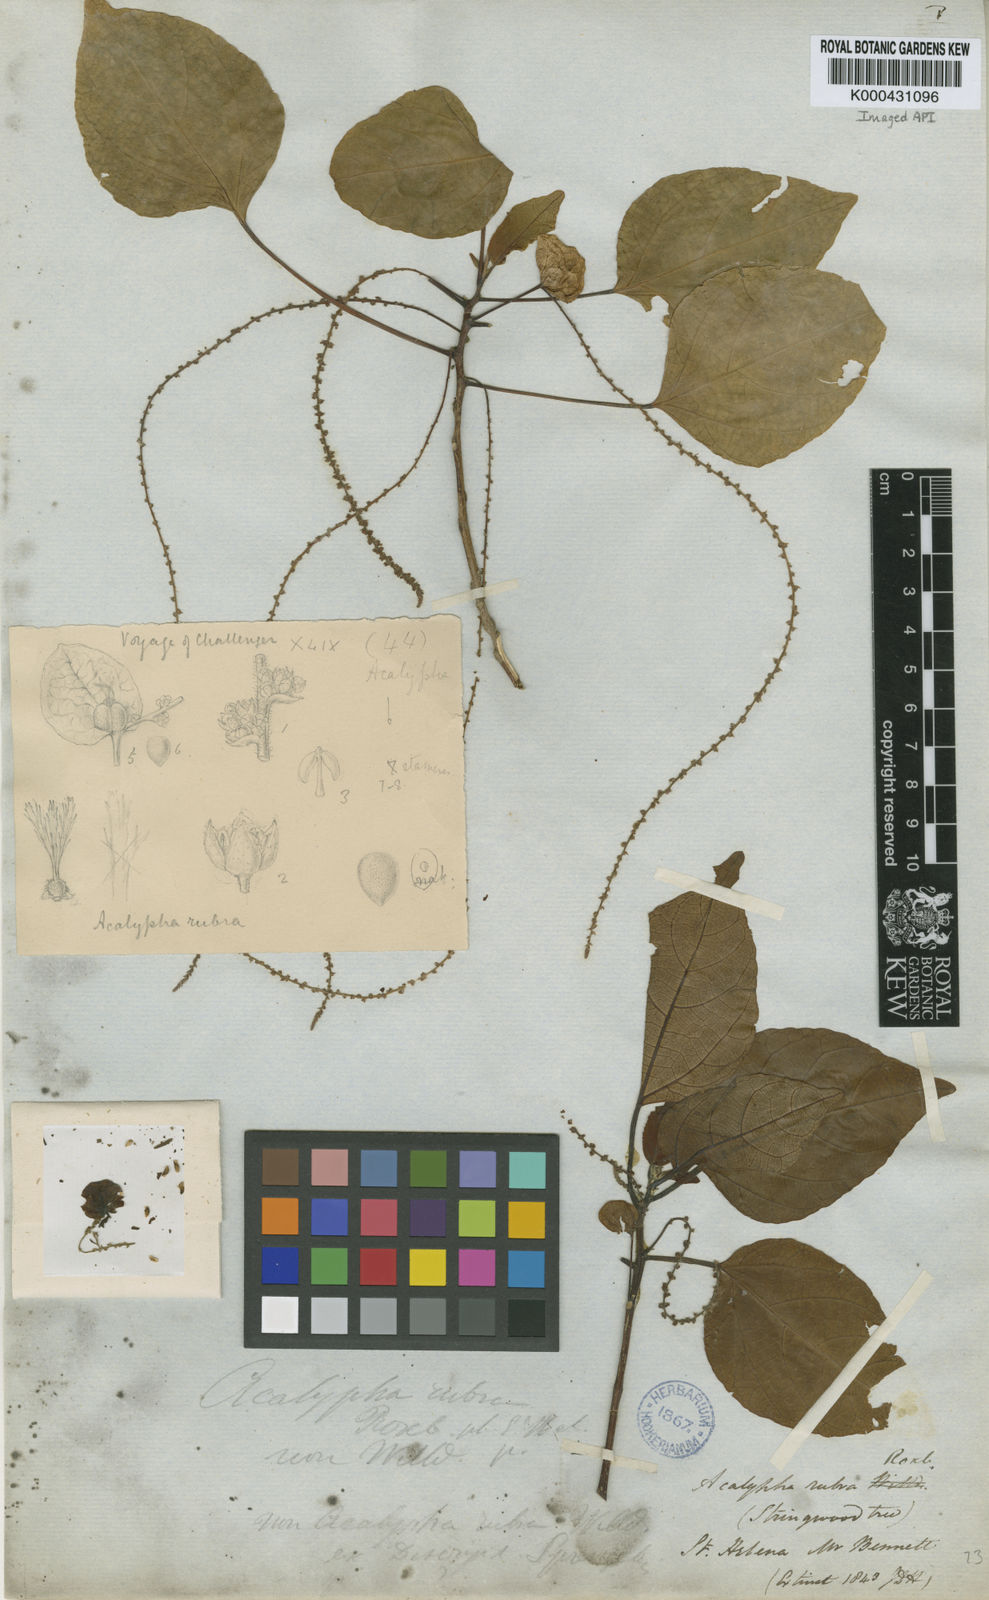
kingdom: Plantae
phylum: Tracheophyta
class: Magnoliopsida
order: Malpighiales
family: Euphorbiaceae
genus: Acalypha
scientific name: Acalypha
